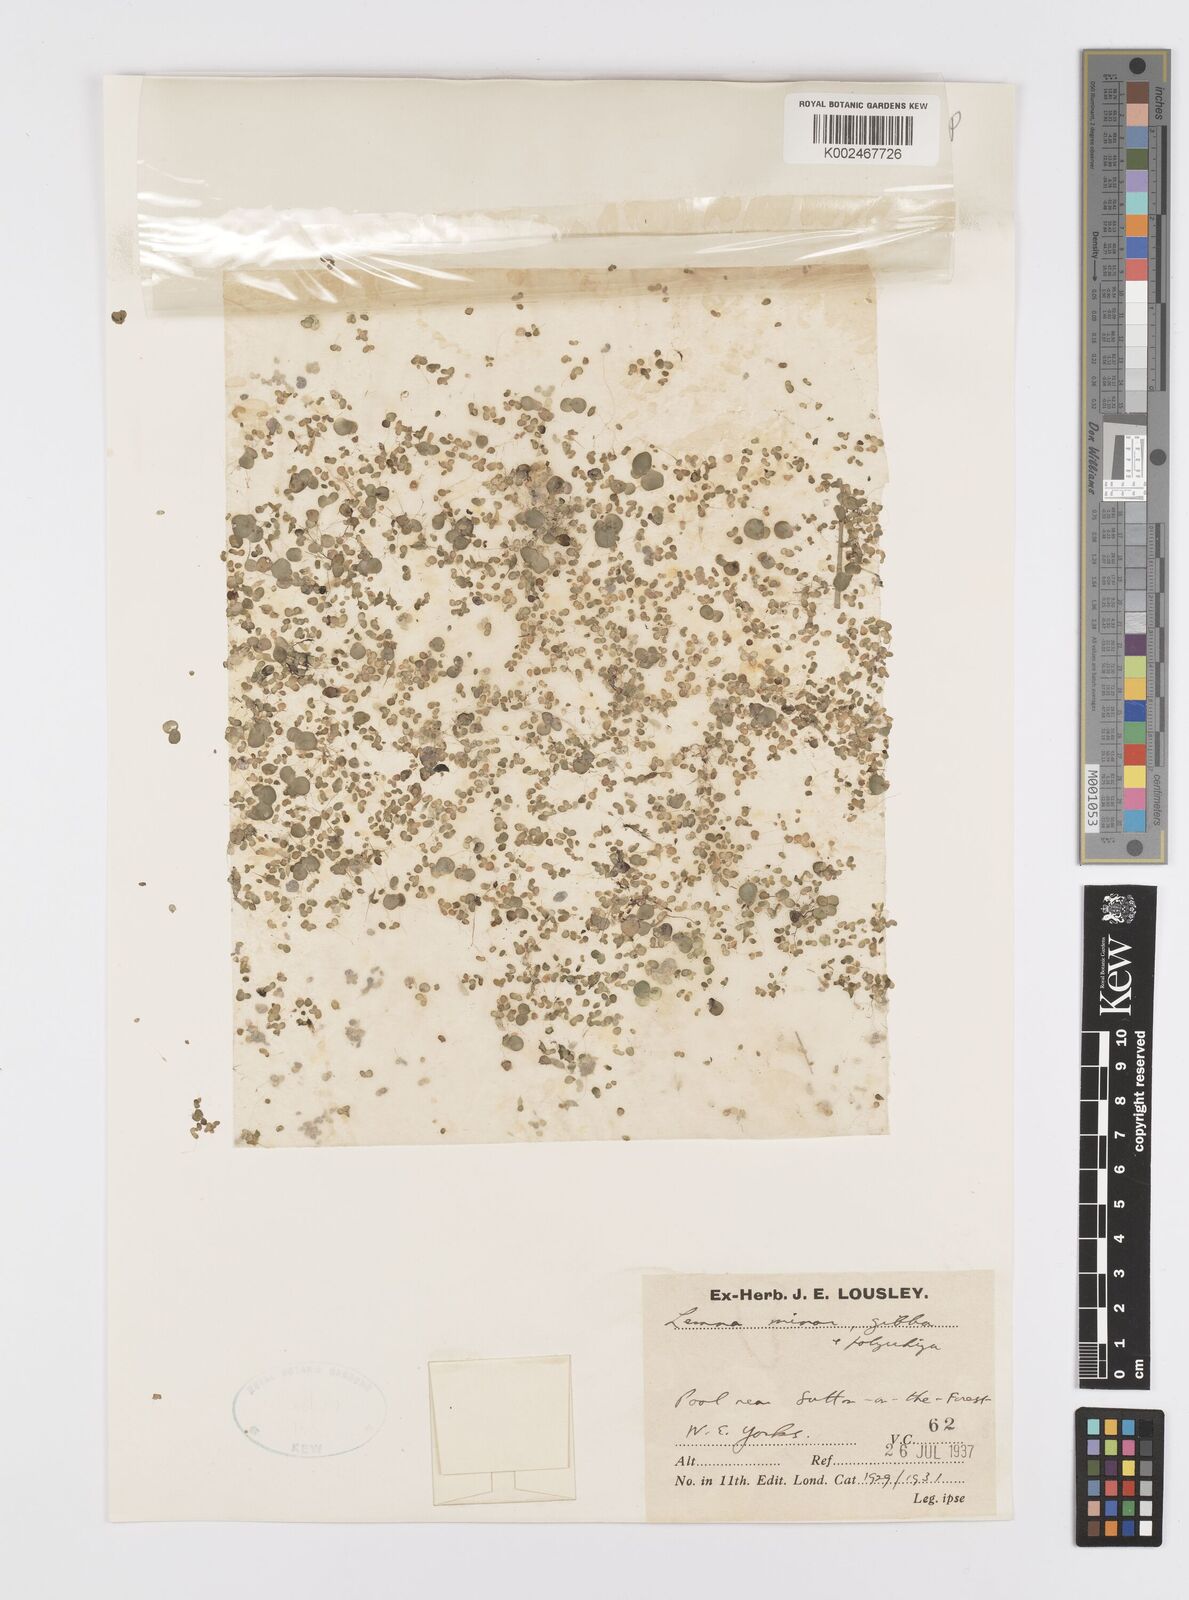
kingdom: Plantae
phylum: Tracheophyta
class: Liliopsida
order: Alismatales
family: Araceae
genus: Lemna
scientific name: Lemna minor
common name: Common duckweed
